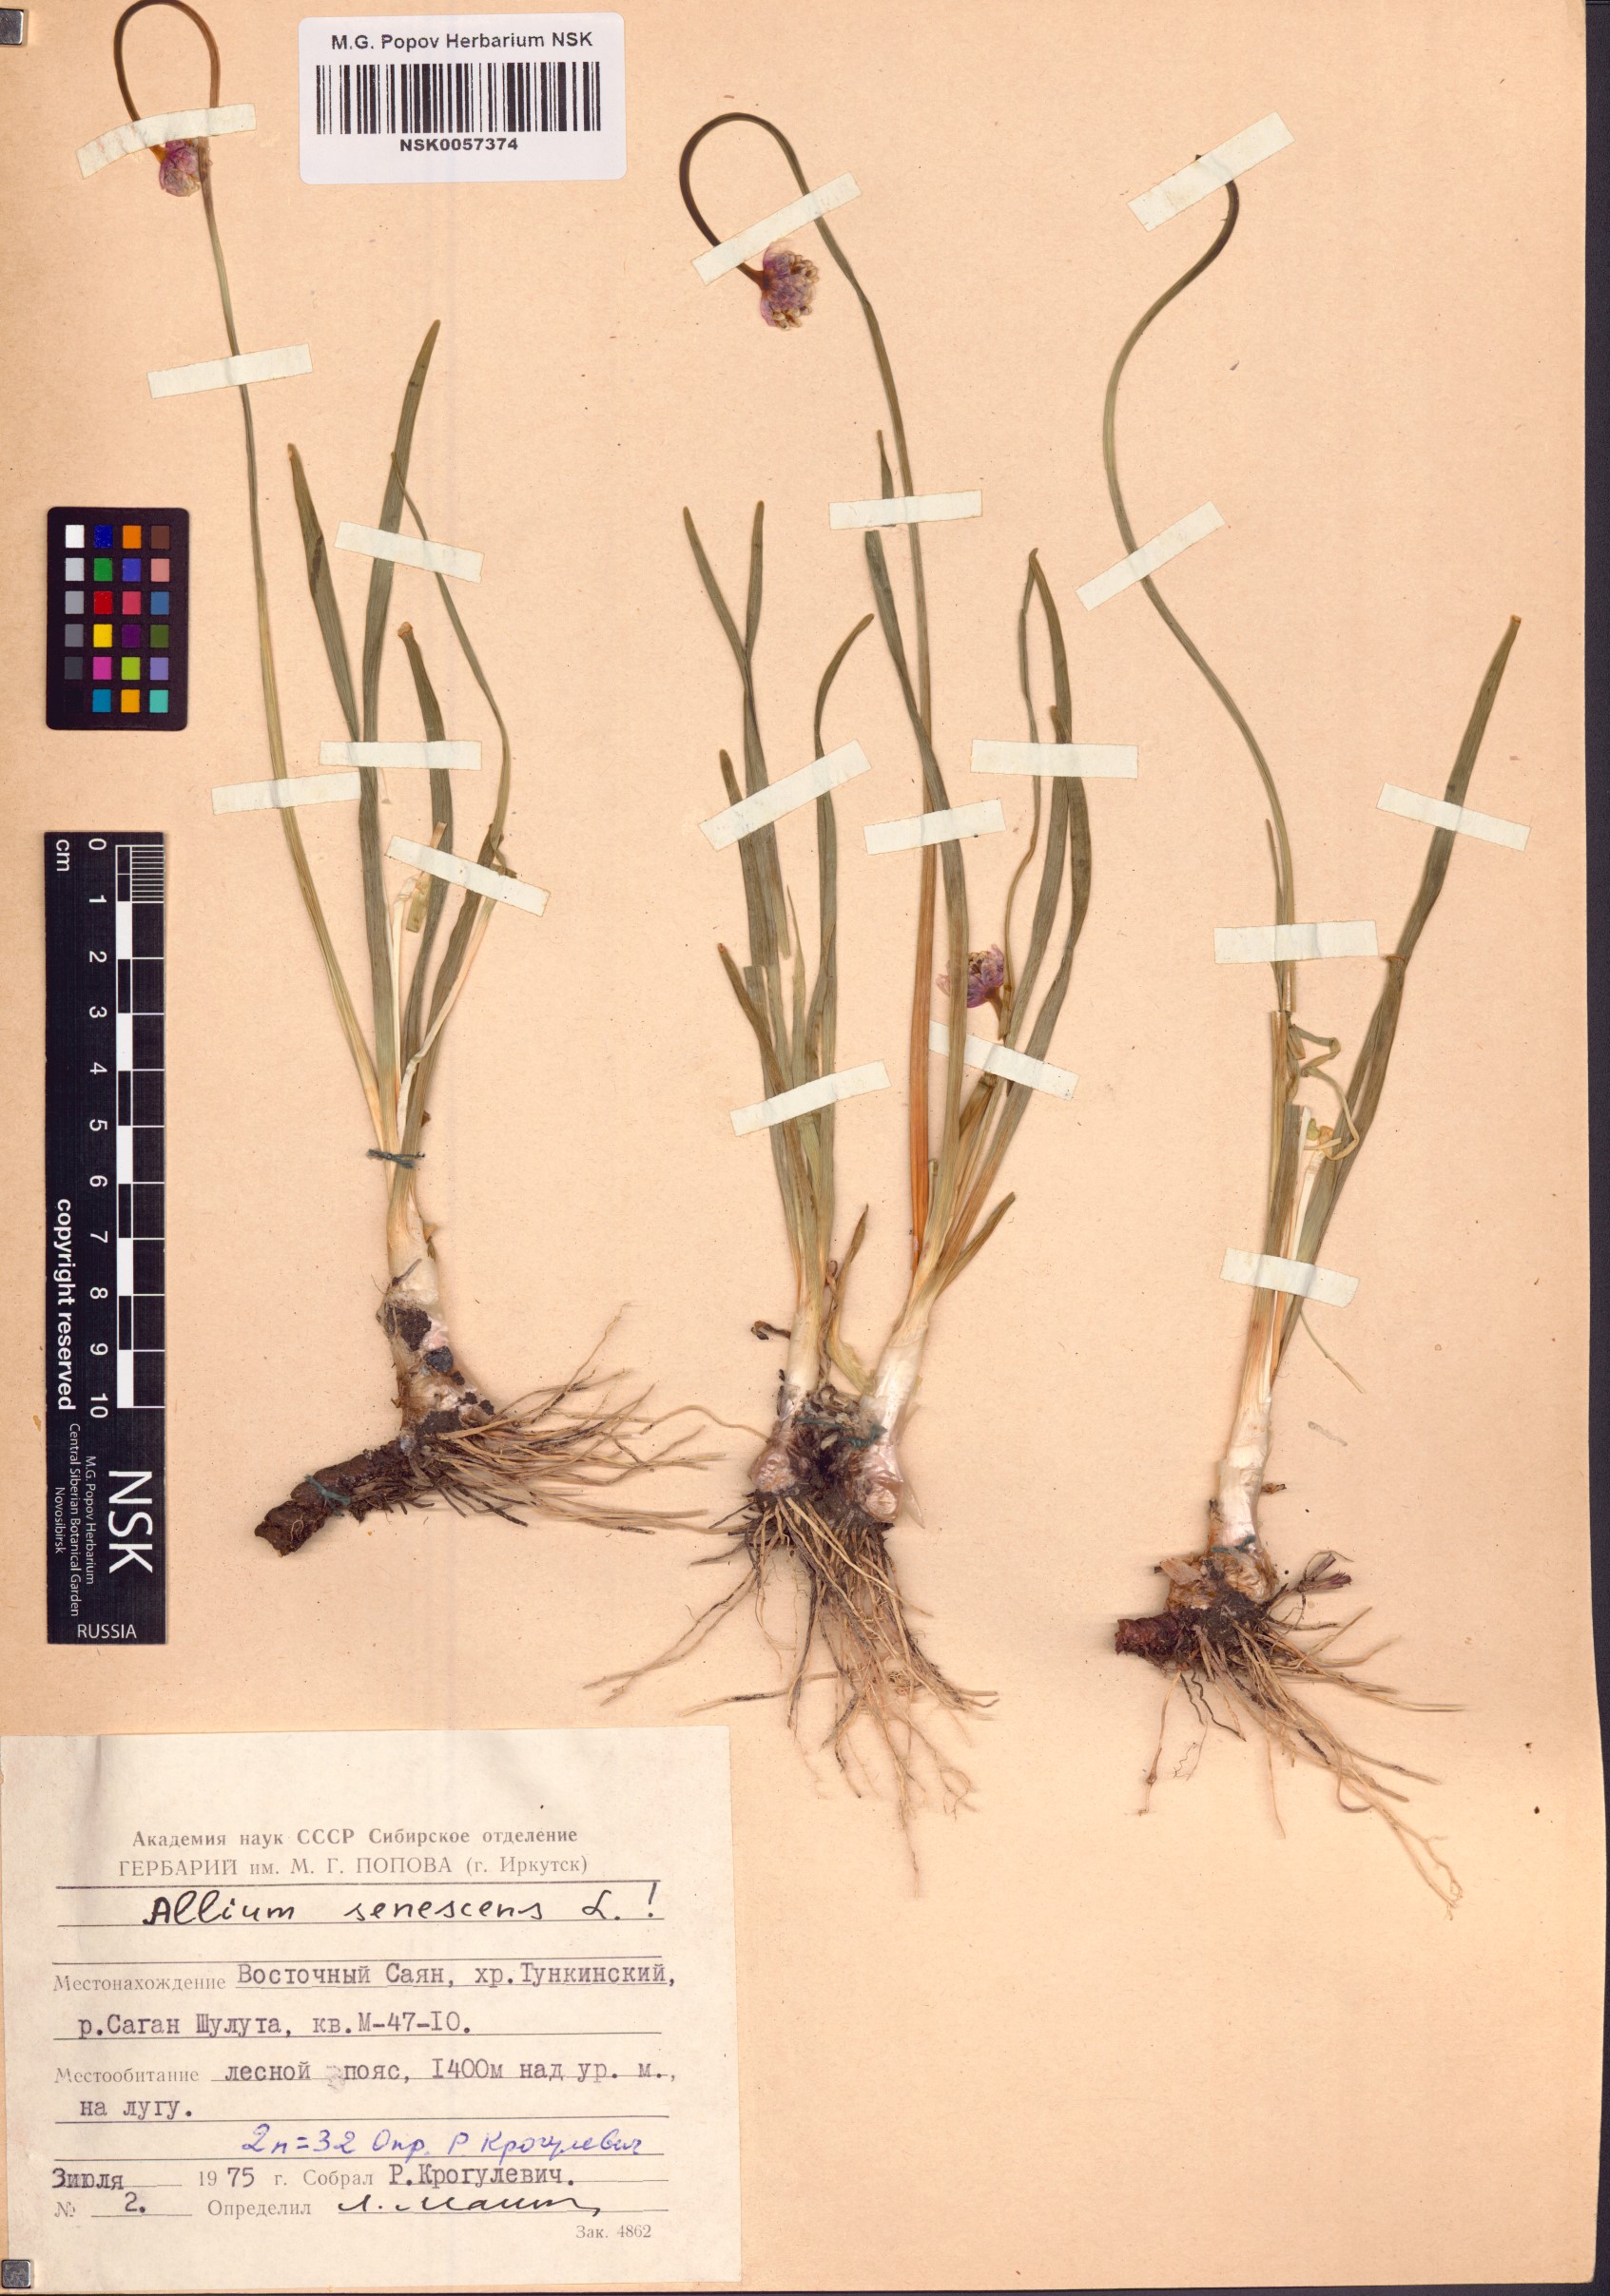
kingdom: Plantae
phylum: Tracheophyta
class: Liliopsida
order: Asparagales
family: Amaryllidaceae
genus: Allium
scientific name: Allium senescens
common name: German garlic
